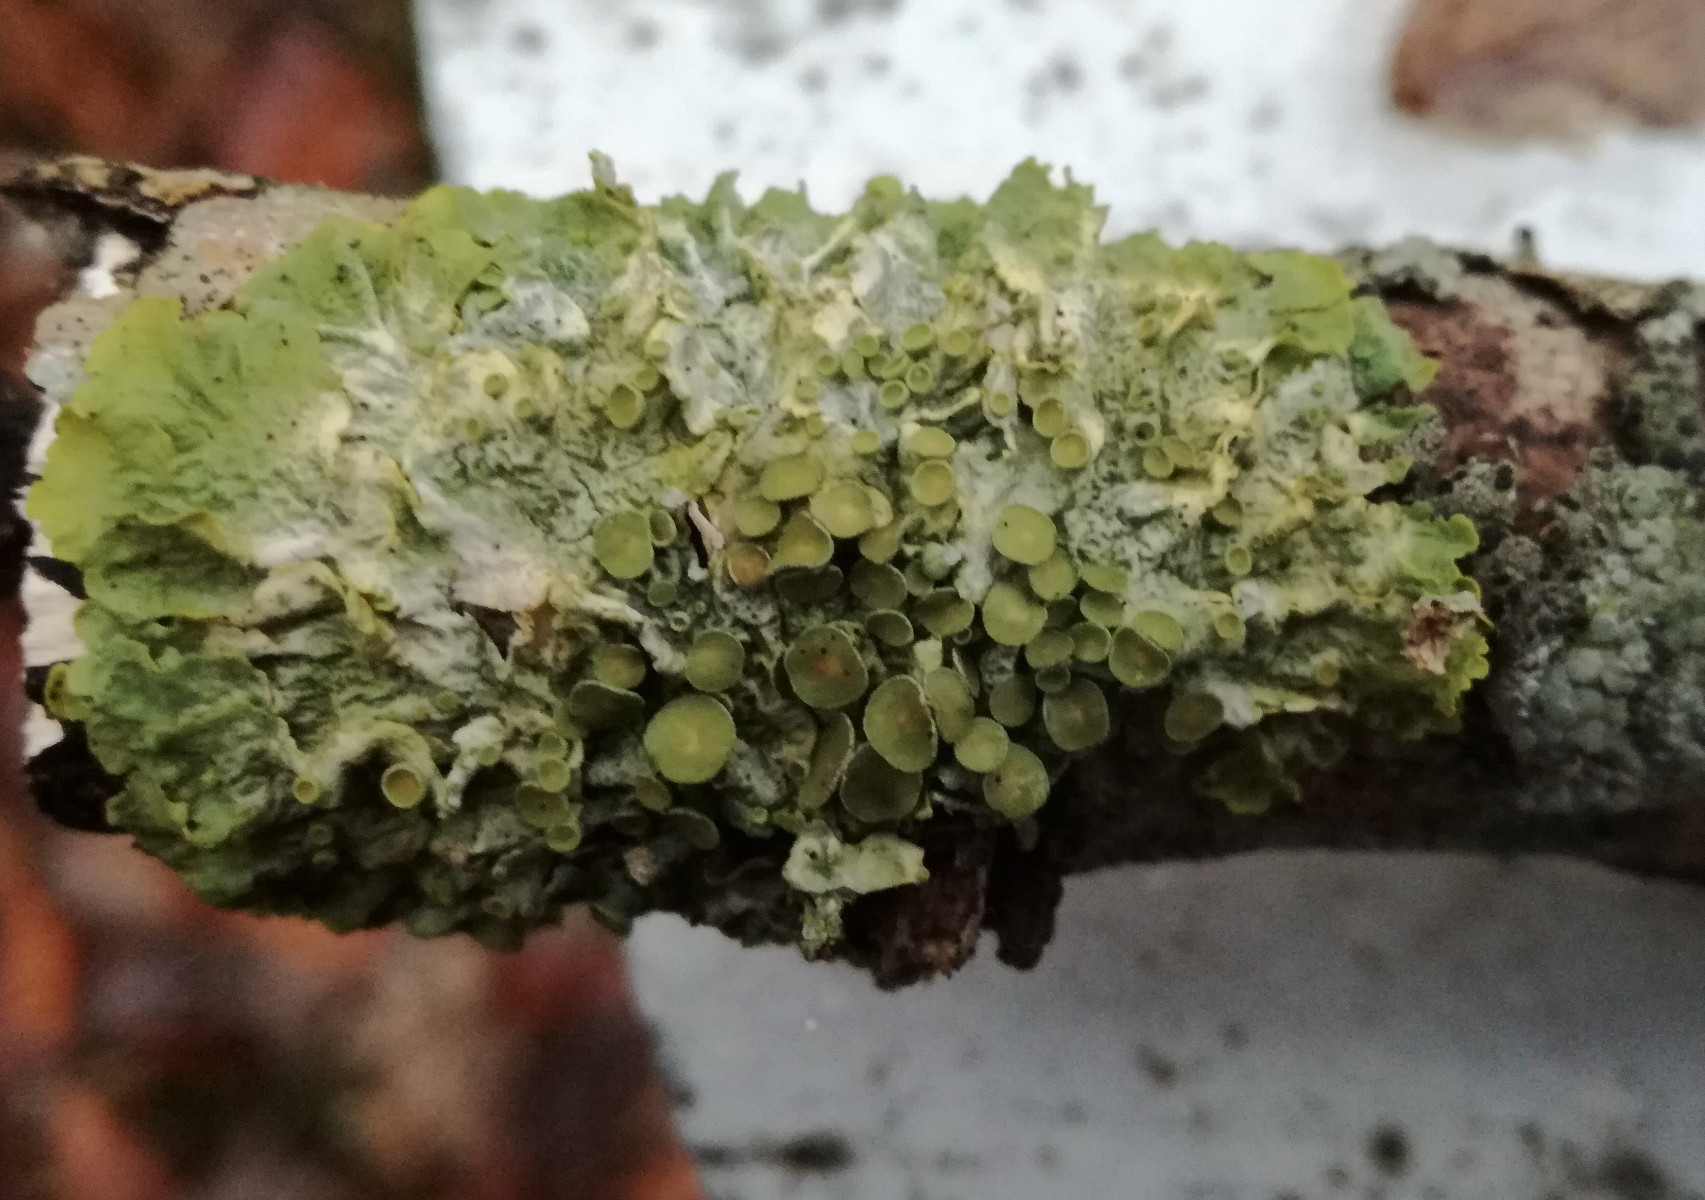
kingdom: Fungi
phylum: Ascomycota
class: Lecanoromycetes
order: Teloschistales
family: Teloschistaceae
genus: Xanthoria
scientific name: Xanthoria parietina
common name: almindelig væggelav
